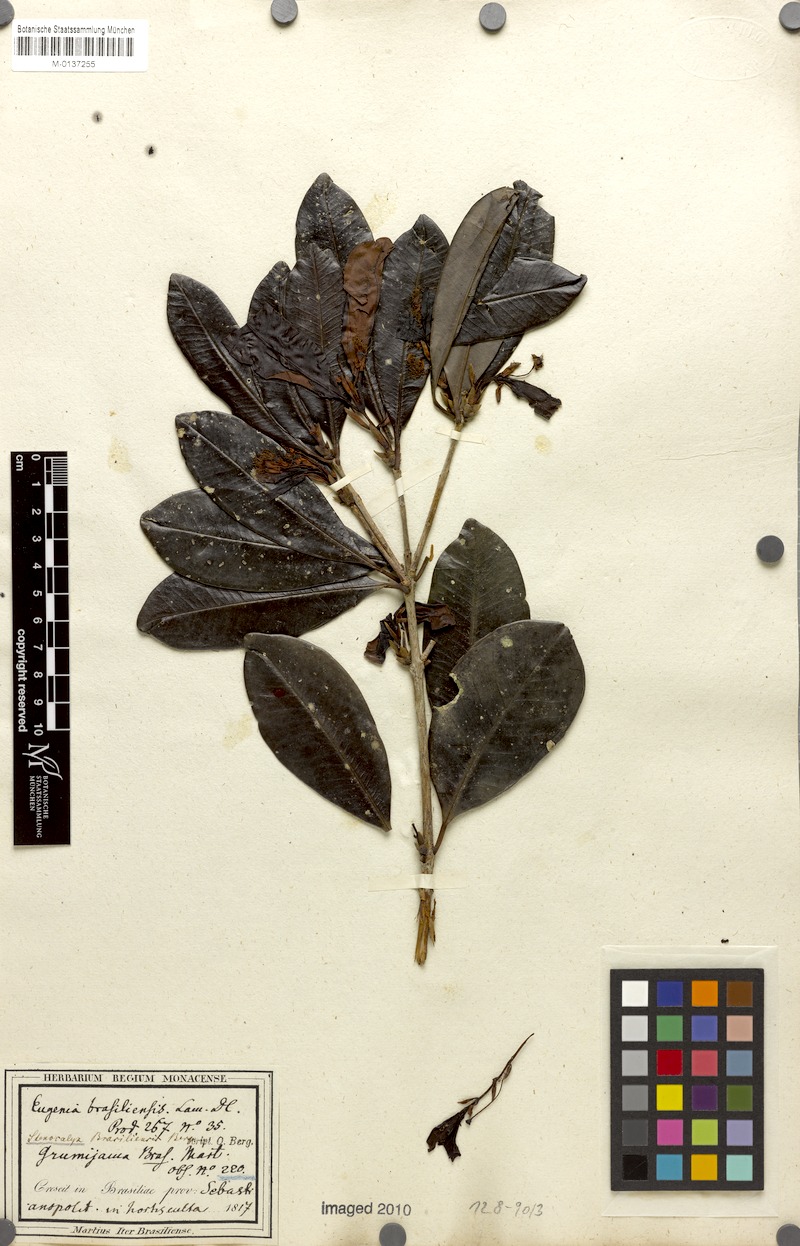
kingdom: Plantae
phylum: Tracheophyta
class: Magnoliopsida
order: Myrtales
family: Myrtaceae
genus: Eugenia
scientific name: Eugenia brasiliensis
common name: Grumichama
